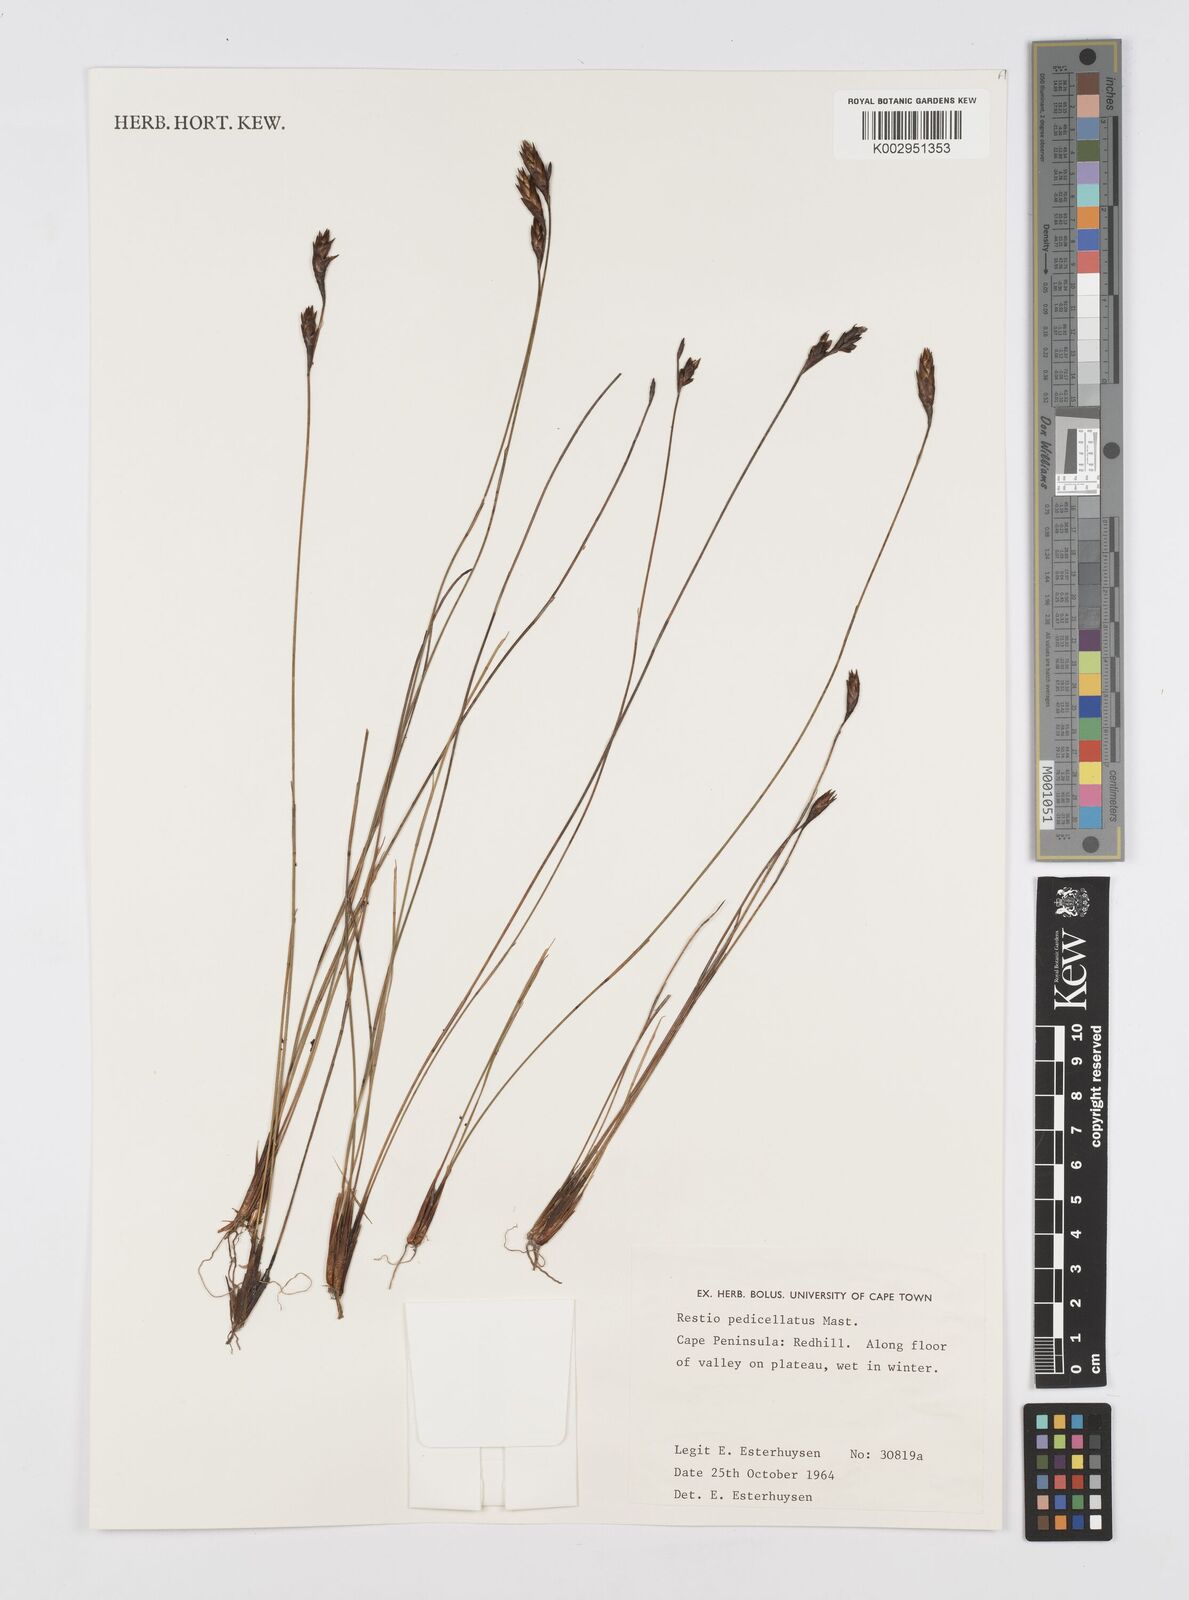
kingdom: Plantae
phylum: Tracheophyta
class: Liliopsida
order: Poales
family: Restionaceae
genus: Restio
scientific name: Restio pedicellatus
